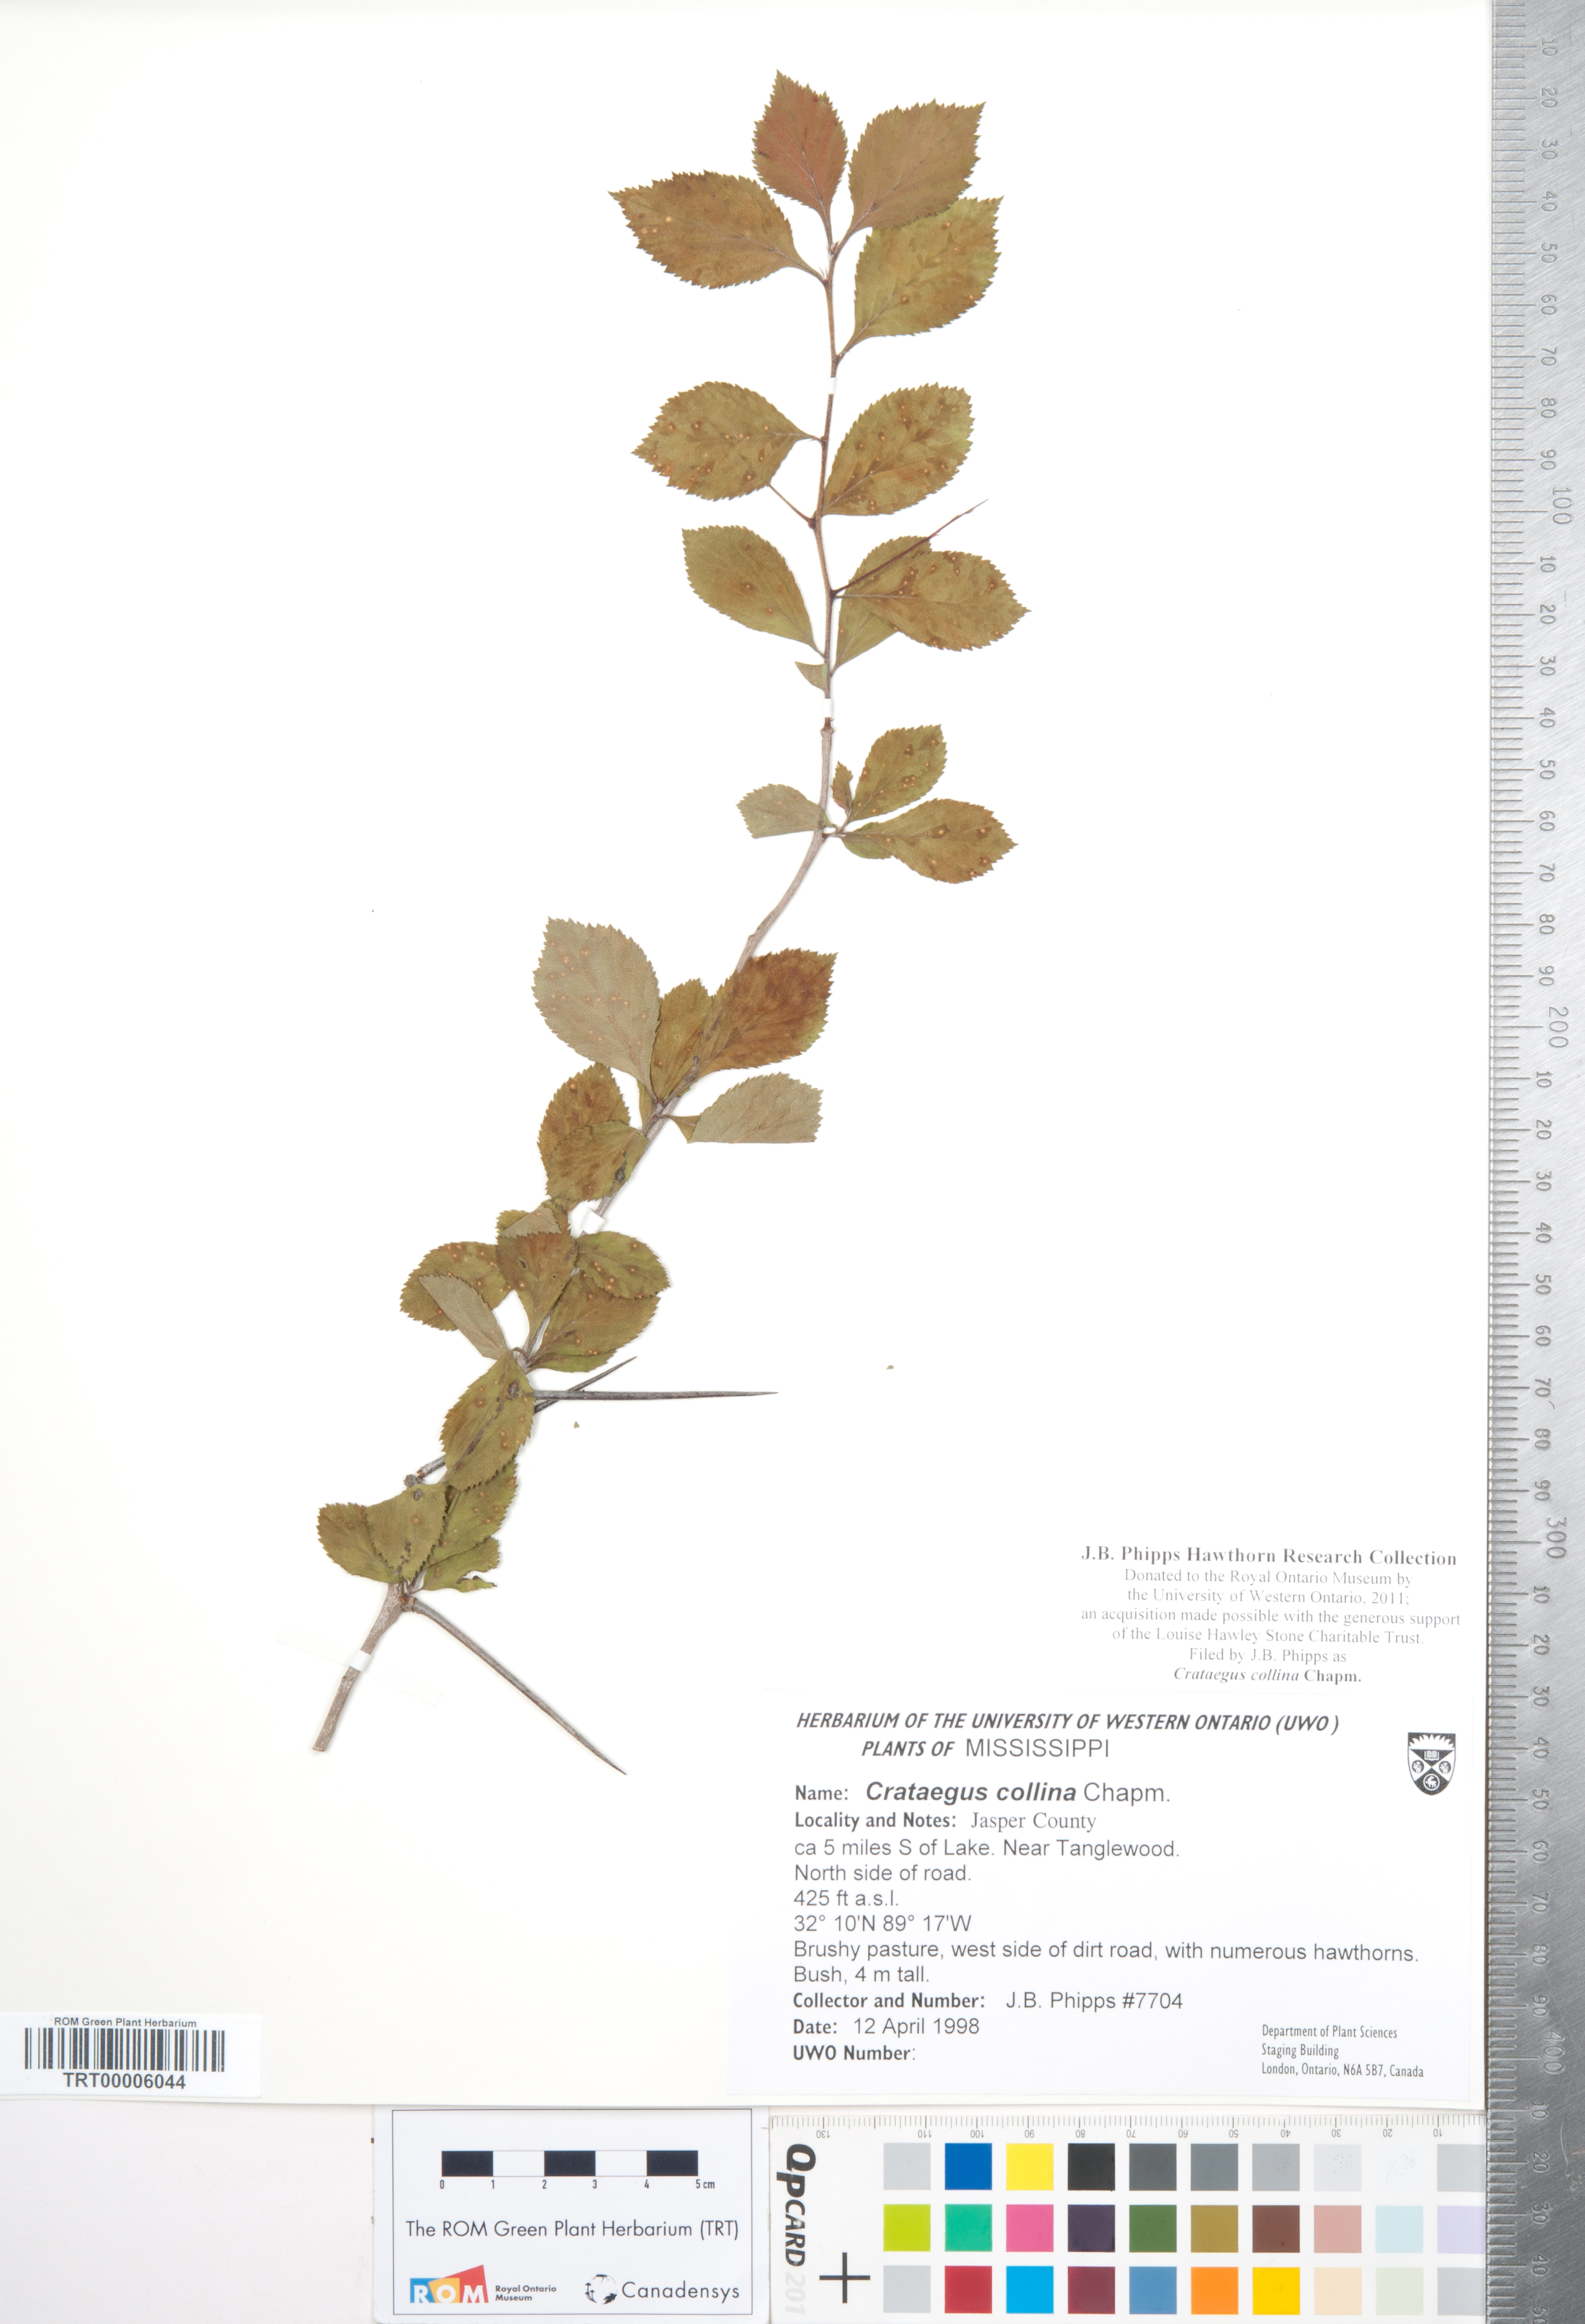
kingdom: Plantae
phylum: Tracheophyta
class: Magnoliopsida
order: Rosales
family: Rosaceae
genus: Crataegus
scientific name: Crataegus collina
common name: Hillside hawthorn
